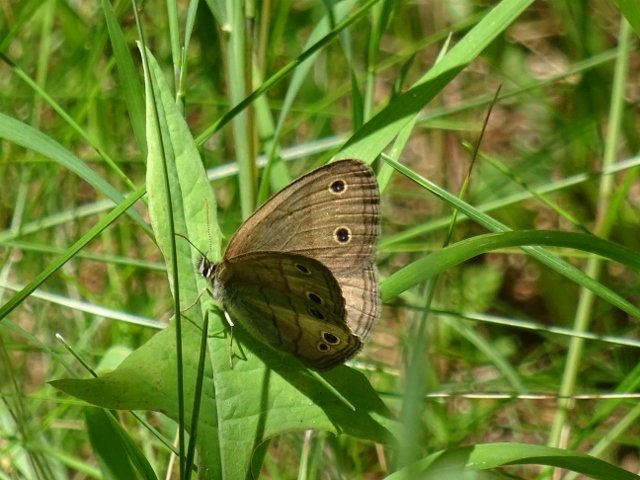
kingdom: Animalia
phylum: Arthropoda
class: Insecta
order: Lepidoptera
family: Nymphalidae
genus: Euptychia
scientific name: Euptychia cymela
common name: Little Wood Satyr
